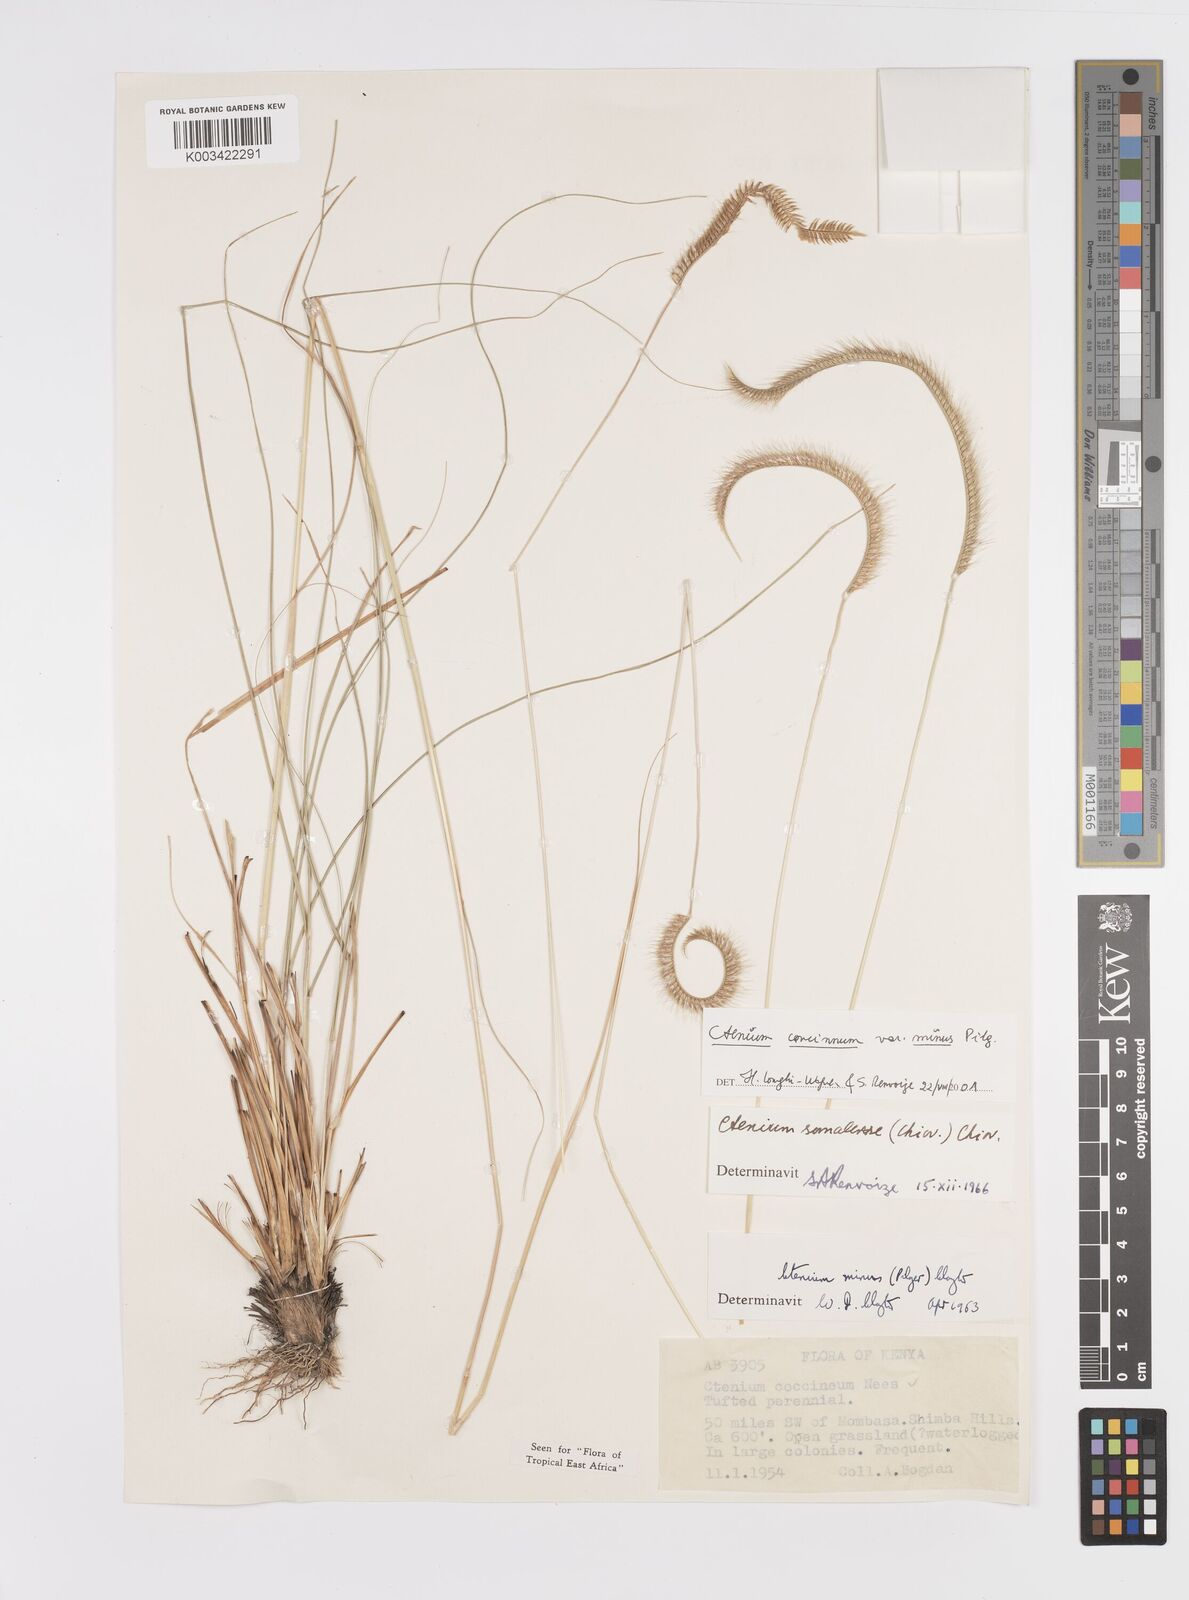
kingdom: Plantae
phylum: Tracheophyta
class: Liliopsida
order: Poales
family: Poaceae
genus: Ctenium
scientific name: Ctenium concinnum
